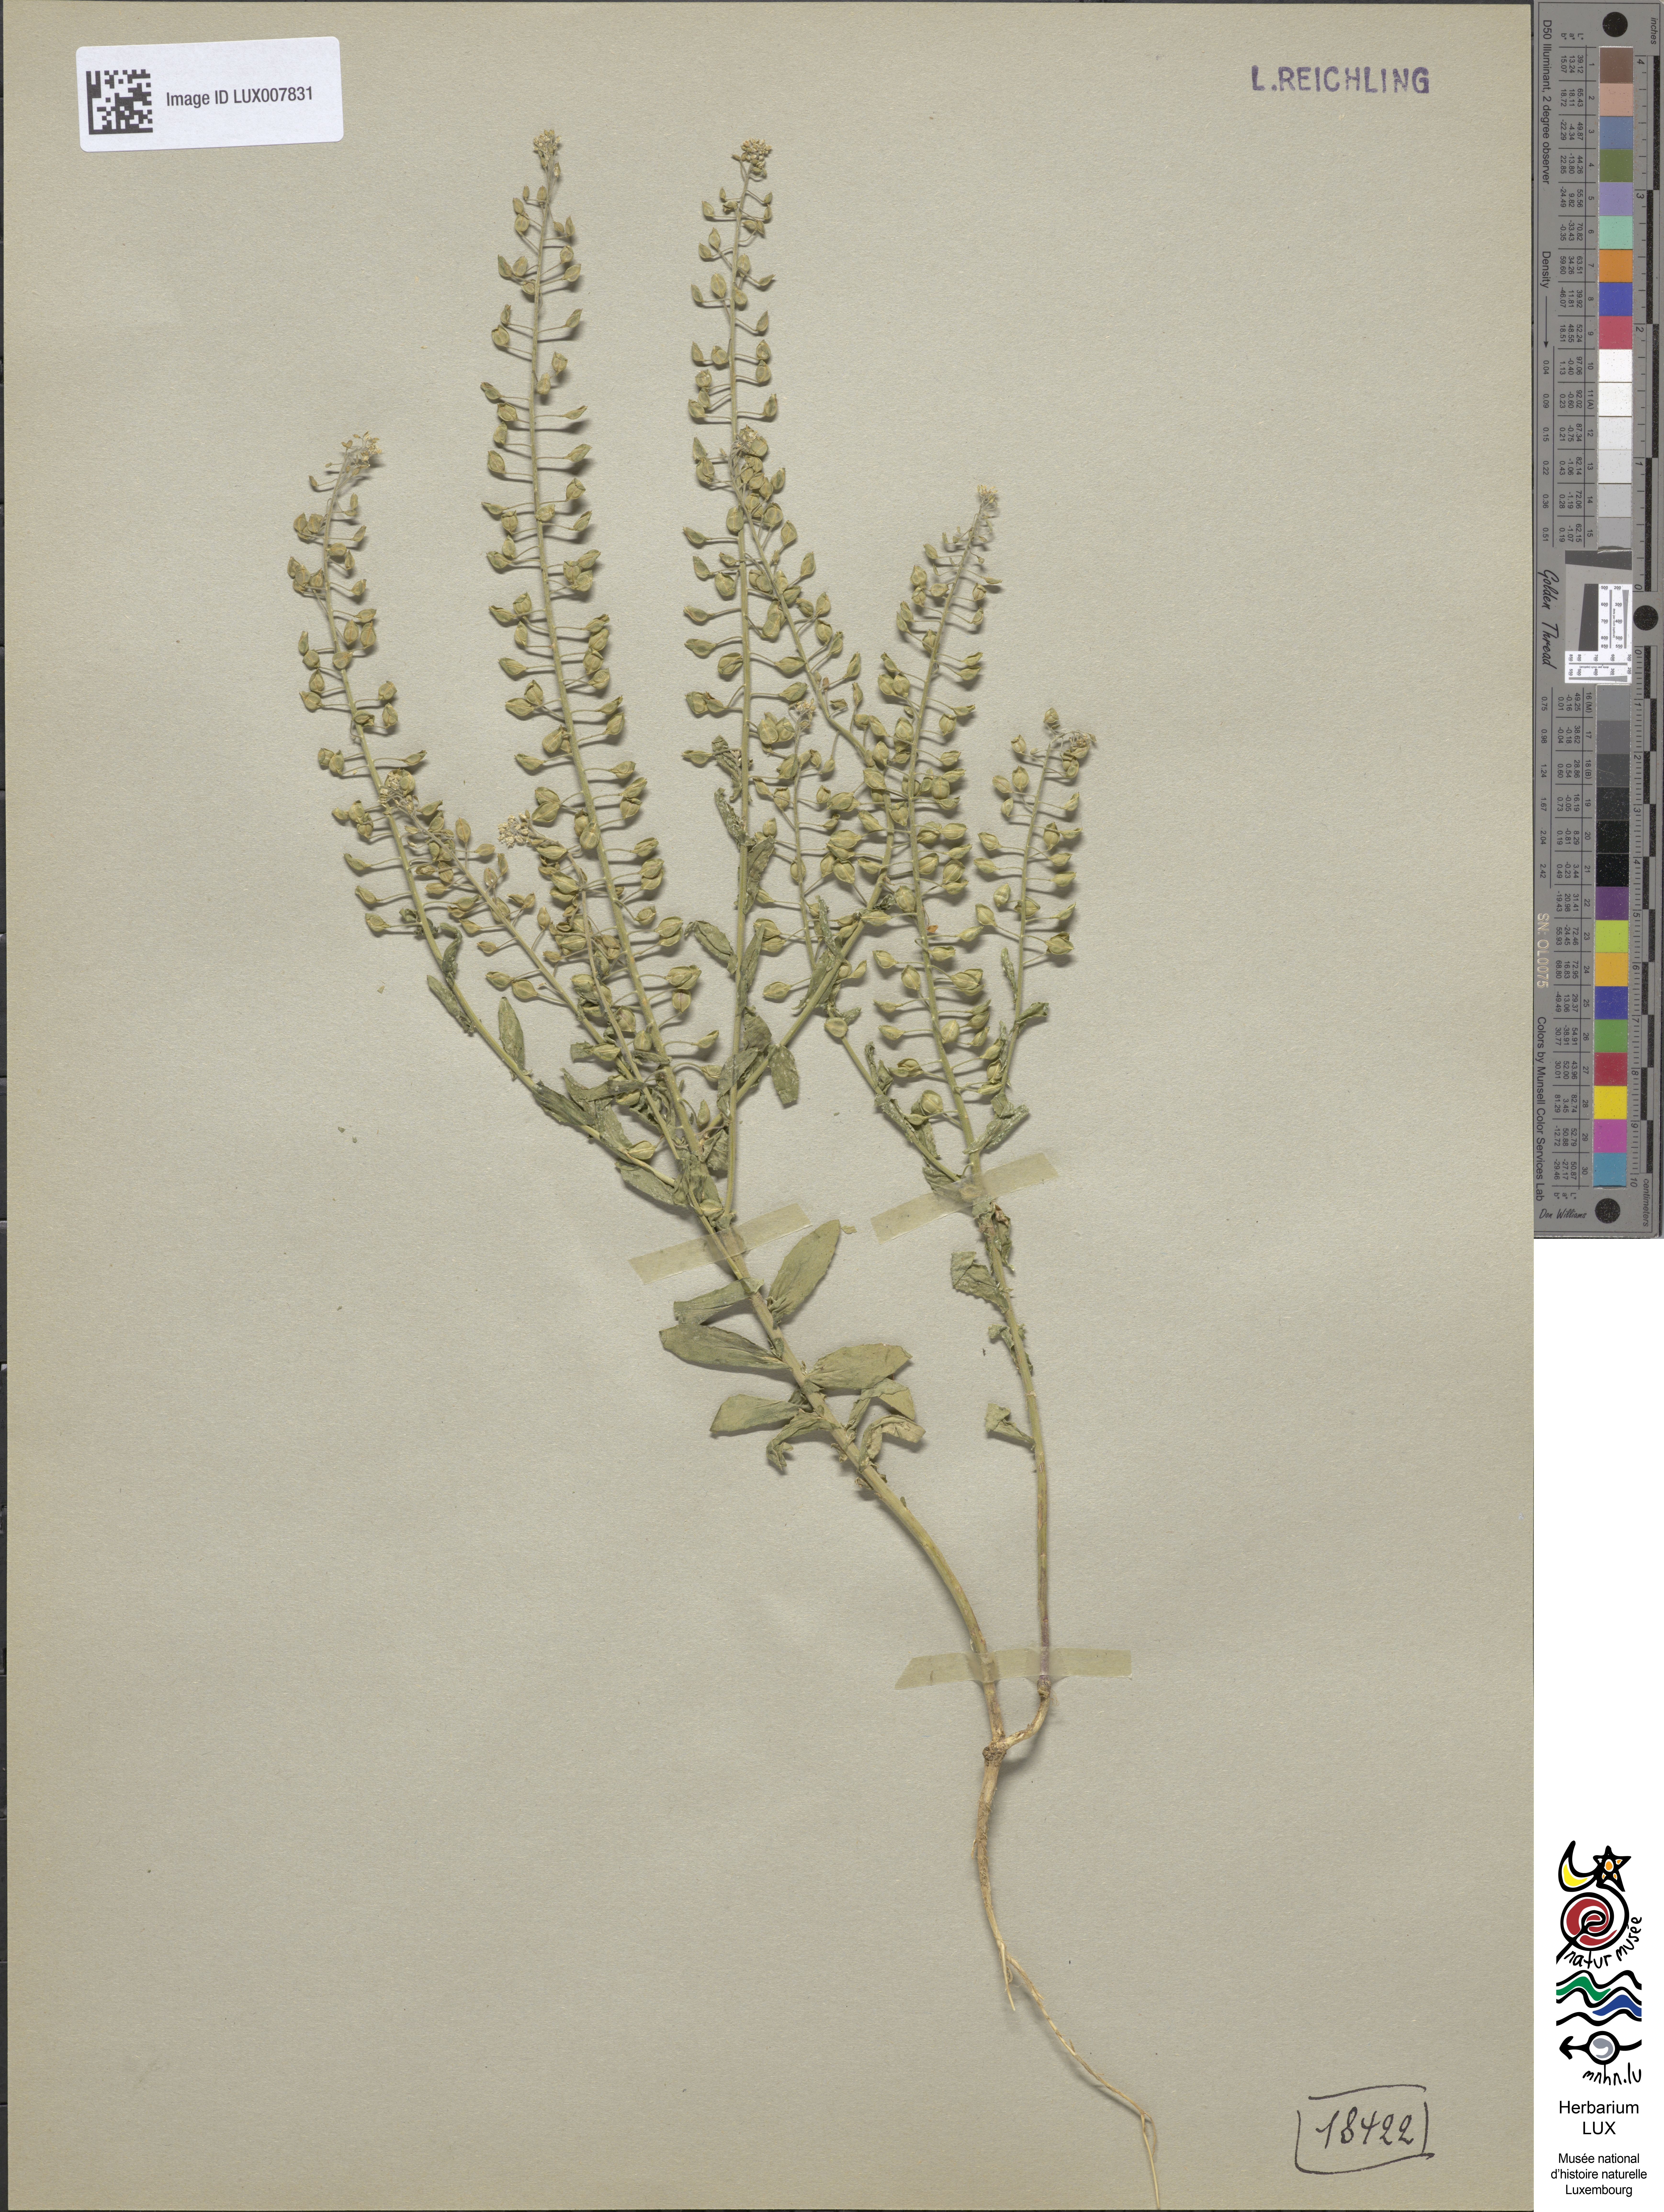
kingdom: Plantae
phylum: Tracheophyta
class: Magnoliopsida
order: Brassicales
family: Brassicaceae
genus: Lepidium
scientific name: Lepidium campestre
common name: Field pepperwort
